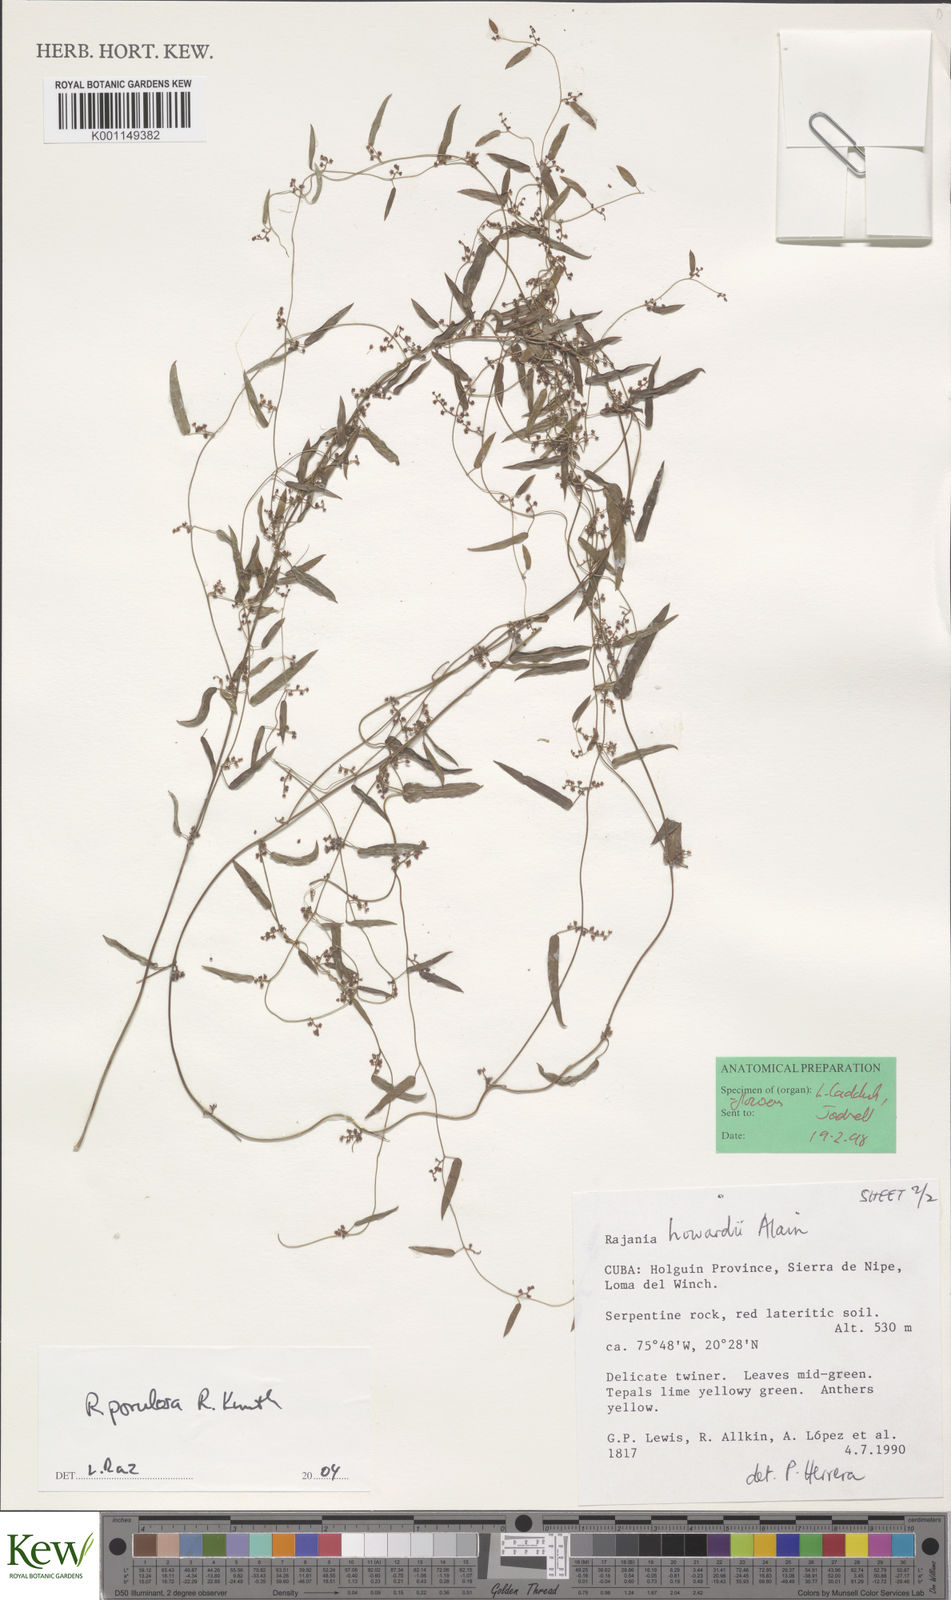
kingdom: Plantae
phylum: Tracheophyta
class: Liliopsida
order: Dioscoreales
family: Dioscoreaceae
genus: Dioscorea
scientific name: Dioscorea
